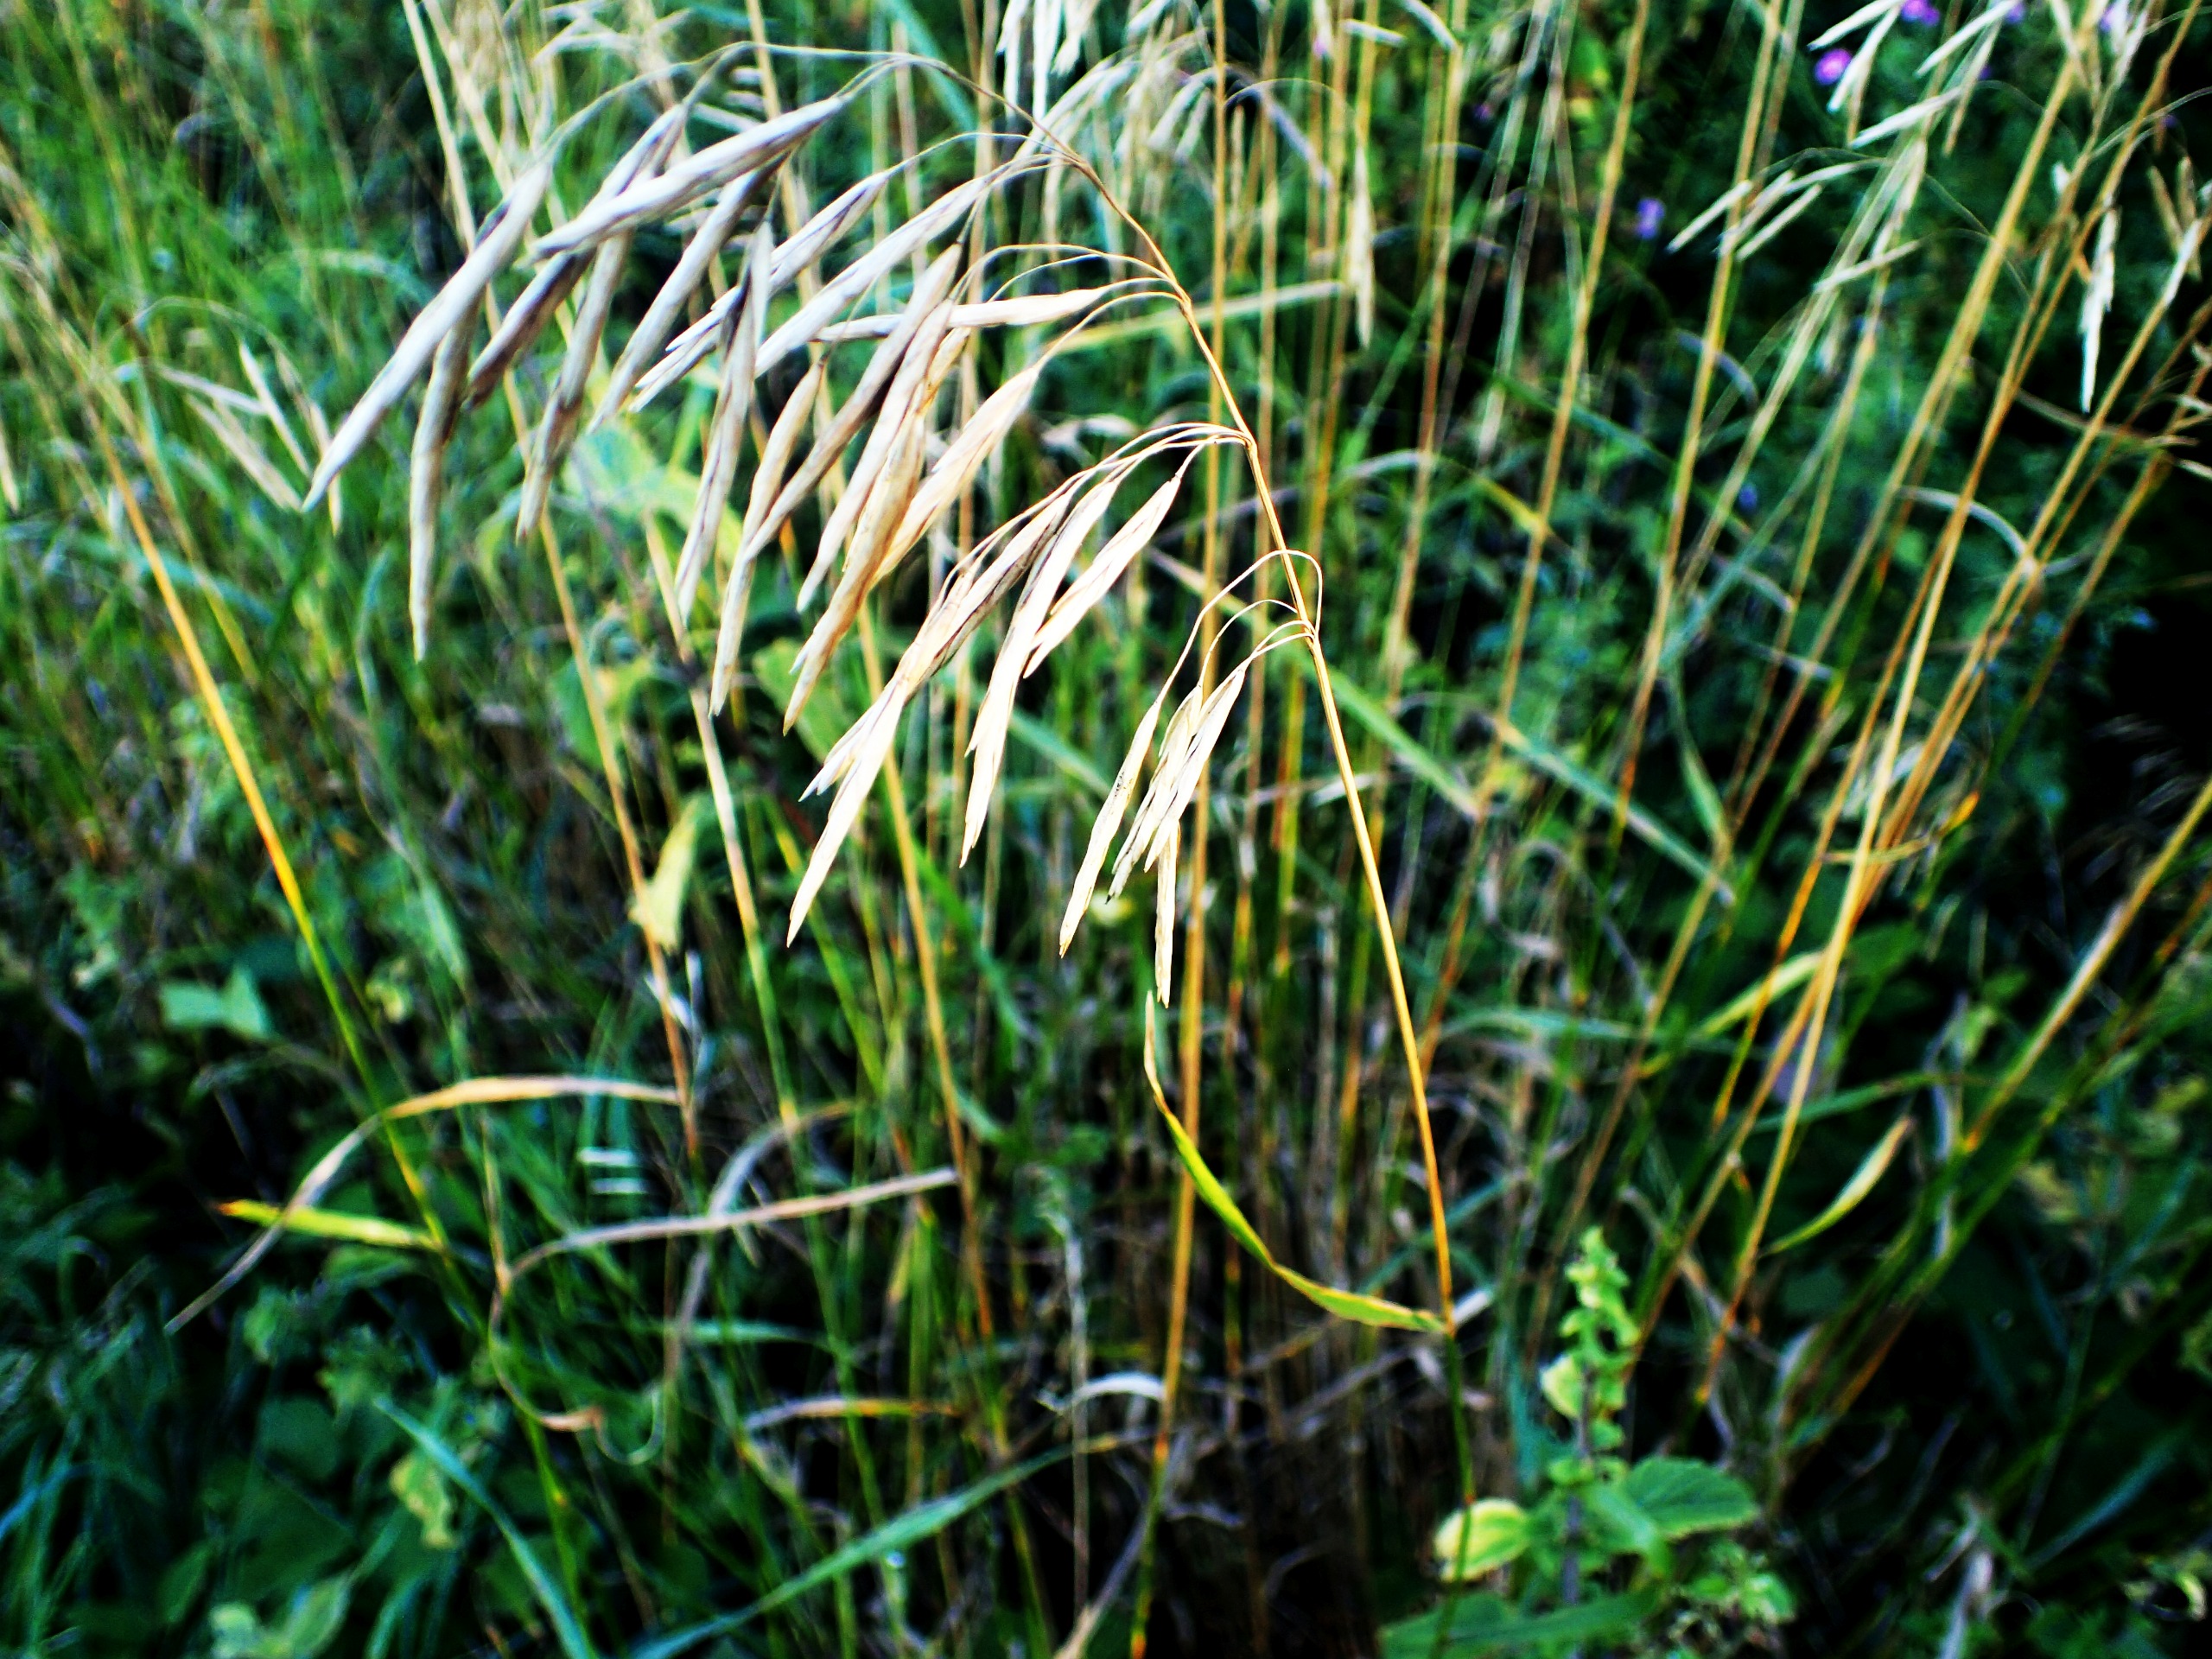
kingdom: Plantae
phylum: Tracheophyta
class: Liliopsida
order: Poales
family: Poaceae
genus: Bromus
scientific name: Bromus inermis
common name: Stakløs hejre
